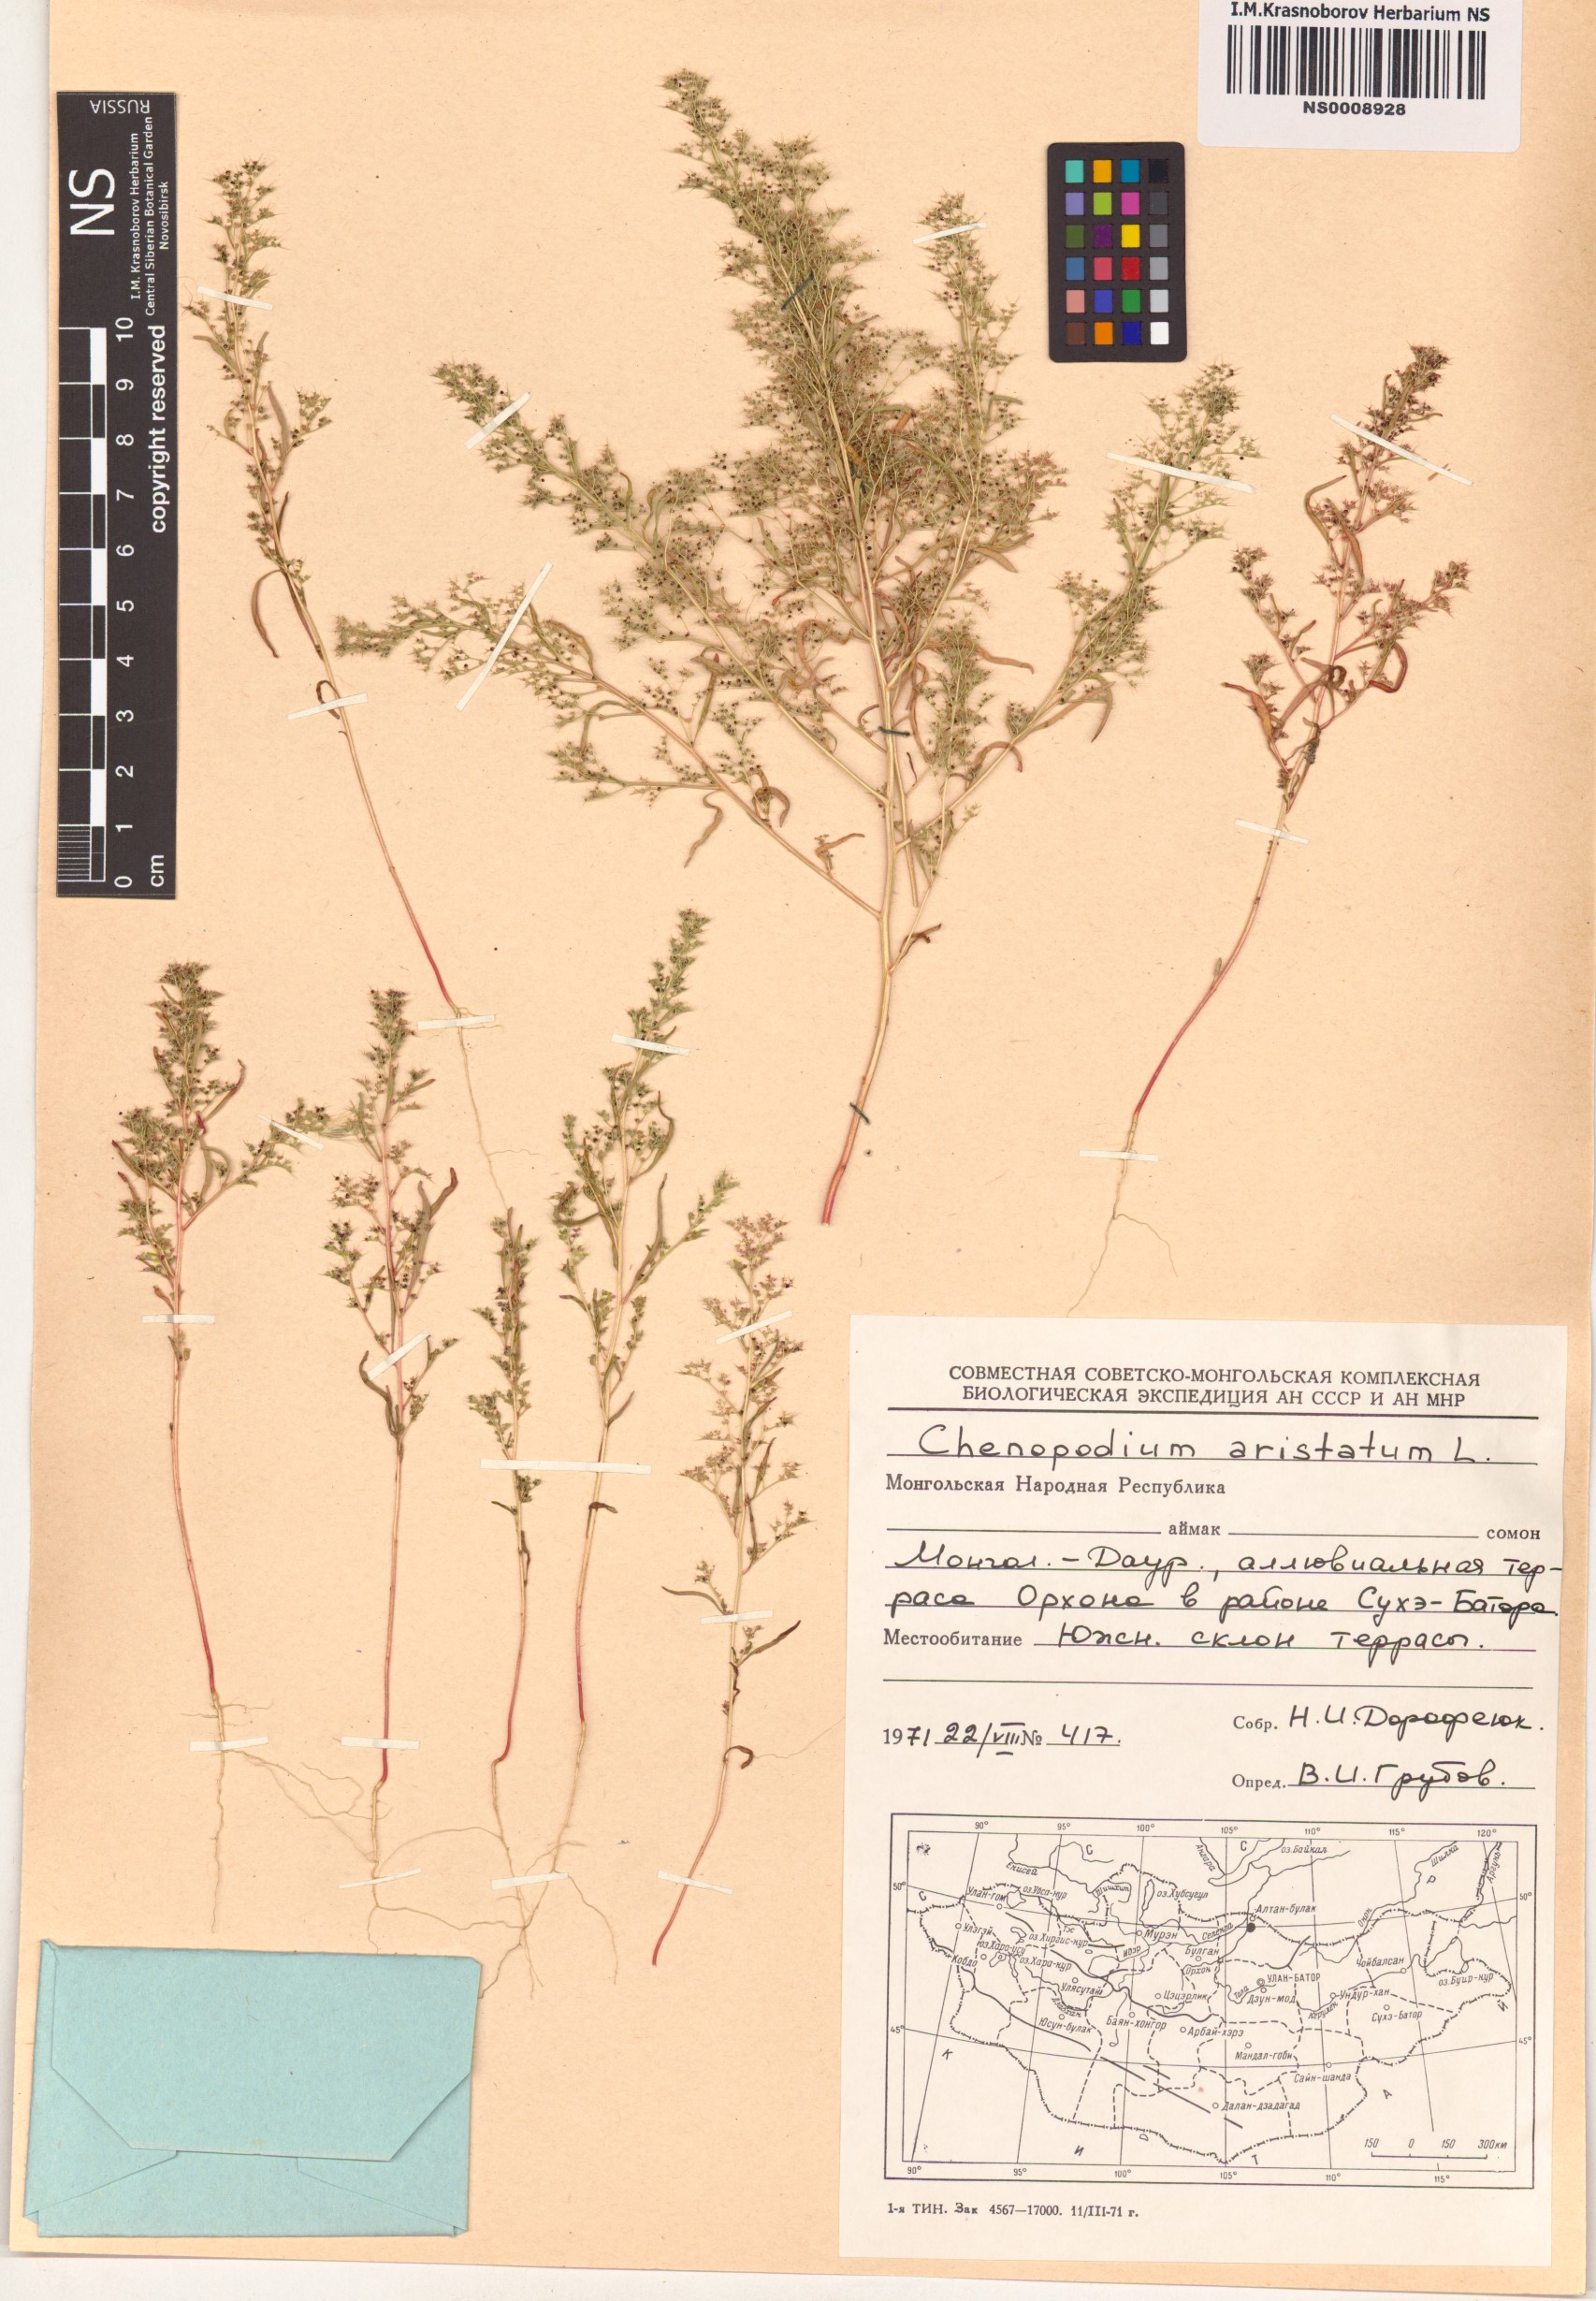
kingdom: Plantae
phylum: Tracheophyta
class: Magnoliopsida
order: Caryophyllales
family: Amaranthaceae
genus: Teloxys
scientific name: Teloxys aristata
